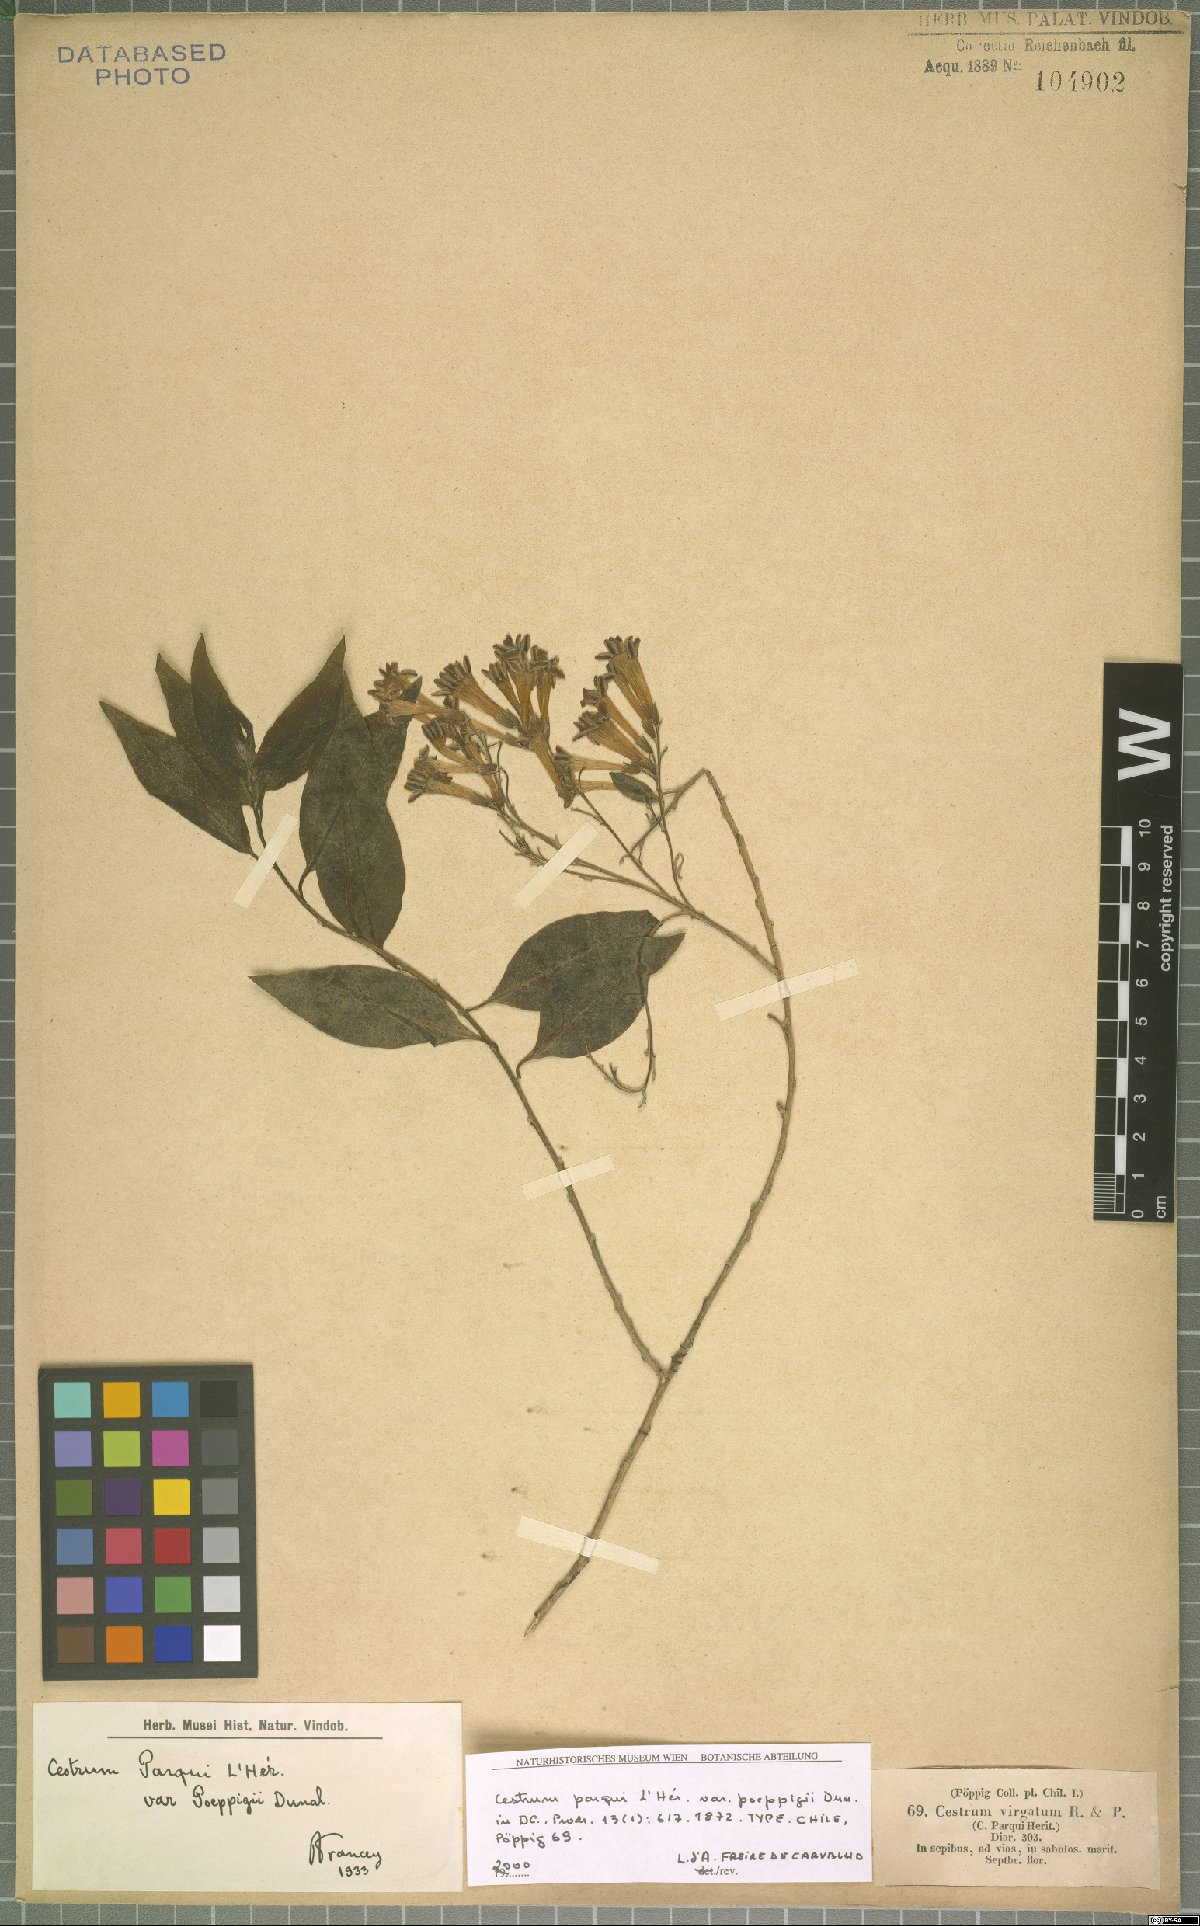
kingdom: Plantae
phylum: Tracheophyta
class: Magnoliopsida
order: Solanales
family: Solanaceae
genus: Cestrum
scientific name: Cestrum parqui
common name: Chilean cestrum
